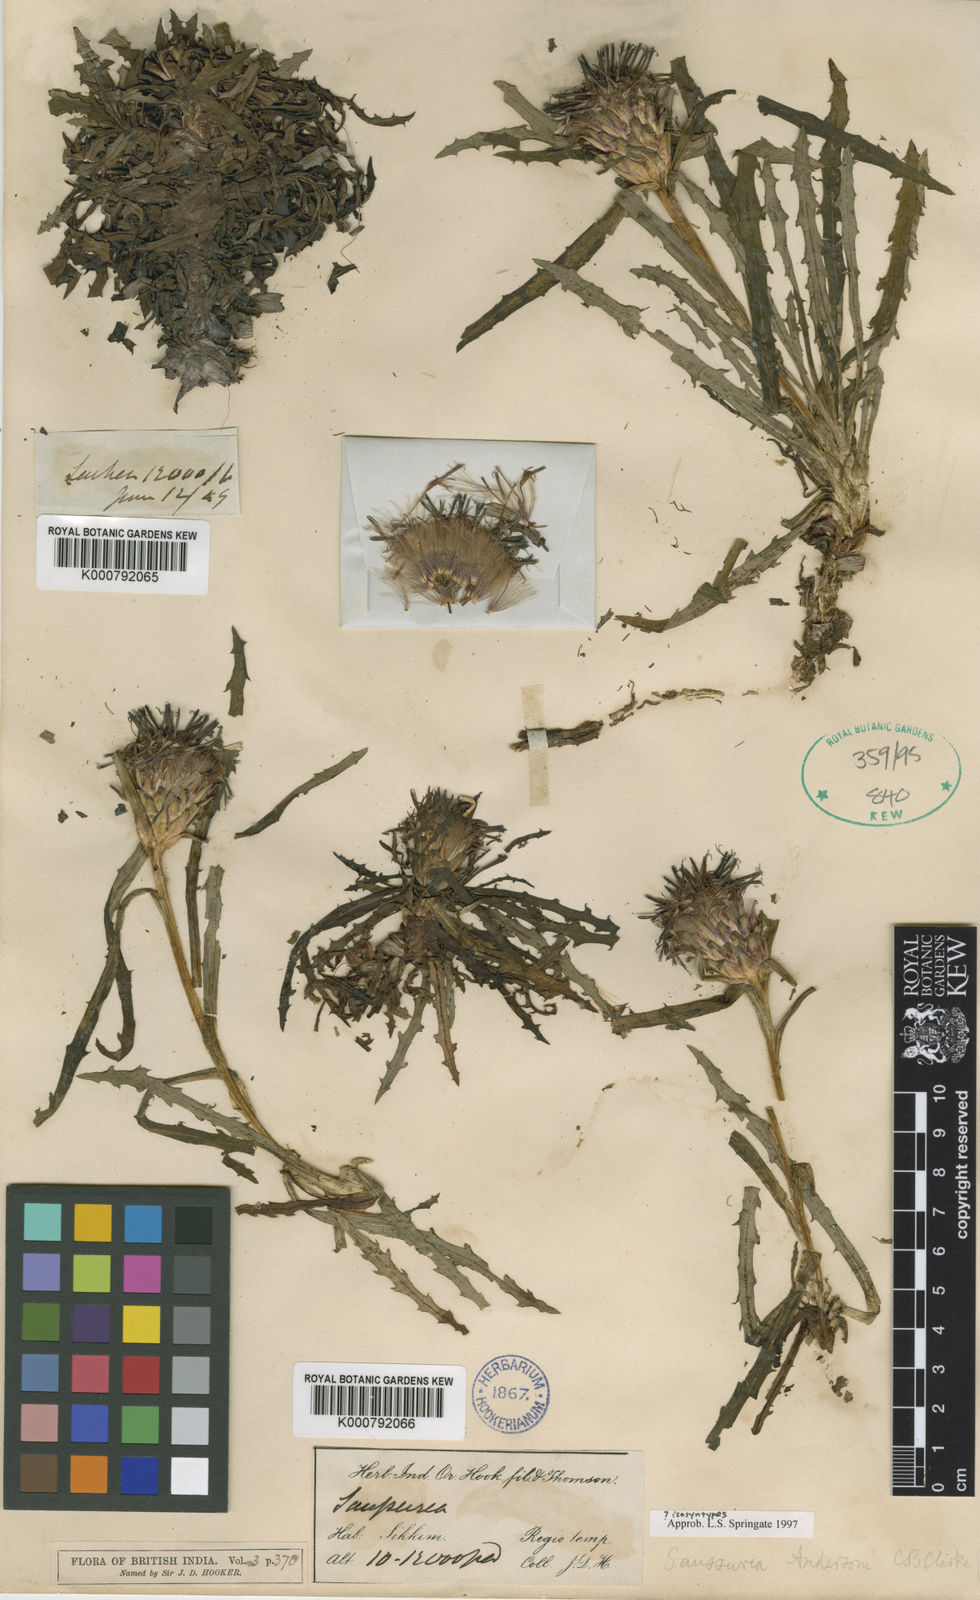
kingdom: Plantae
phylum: Tracheophyta
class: Magnoliopsida
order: Asterales
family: Asteraceae
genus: Saussurea
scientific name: Saussurea andersonii
